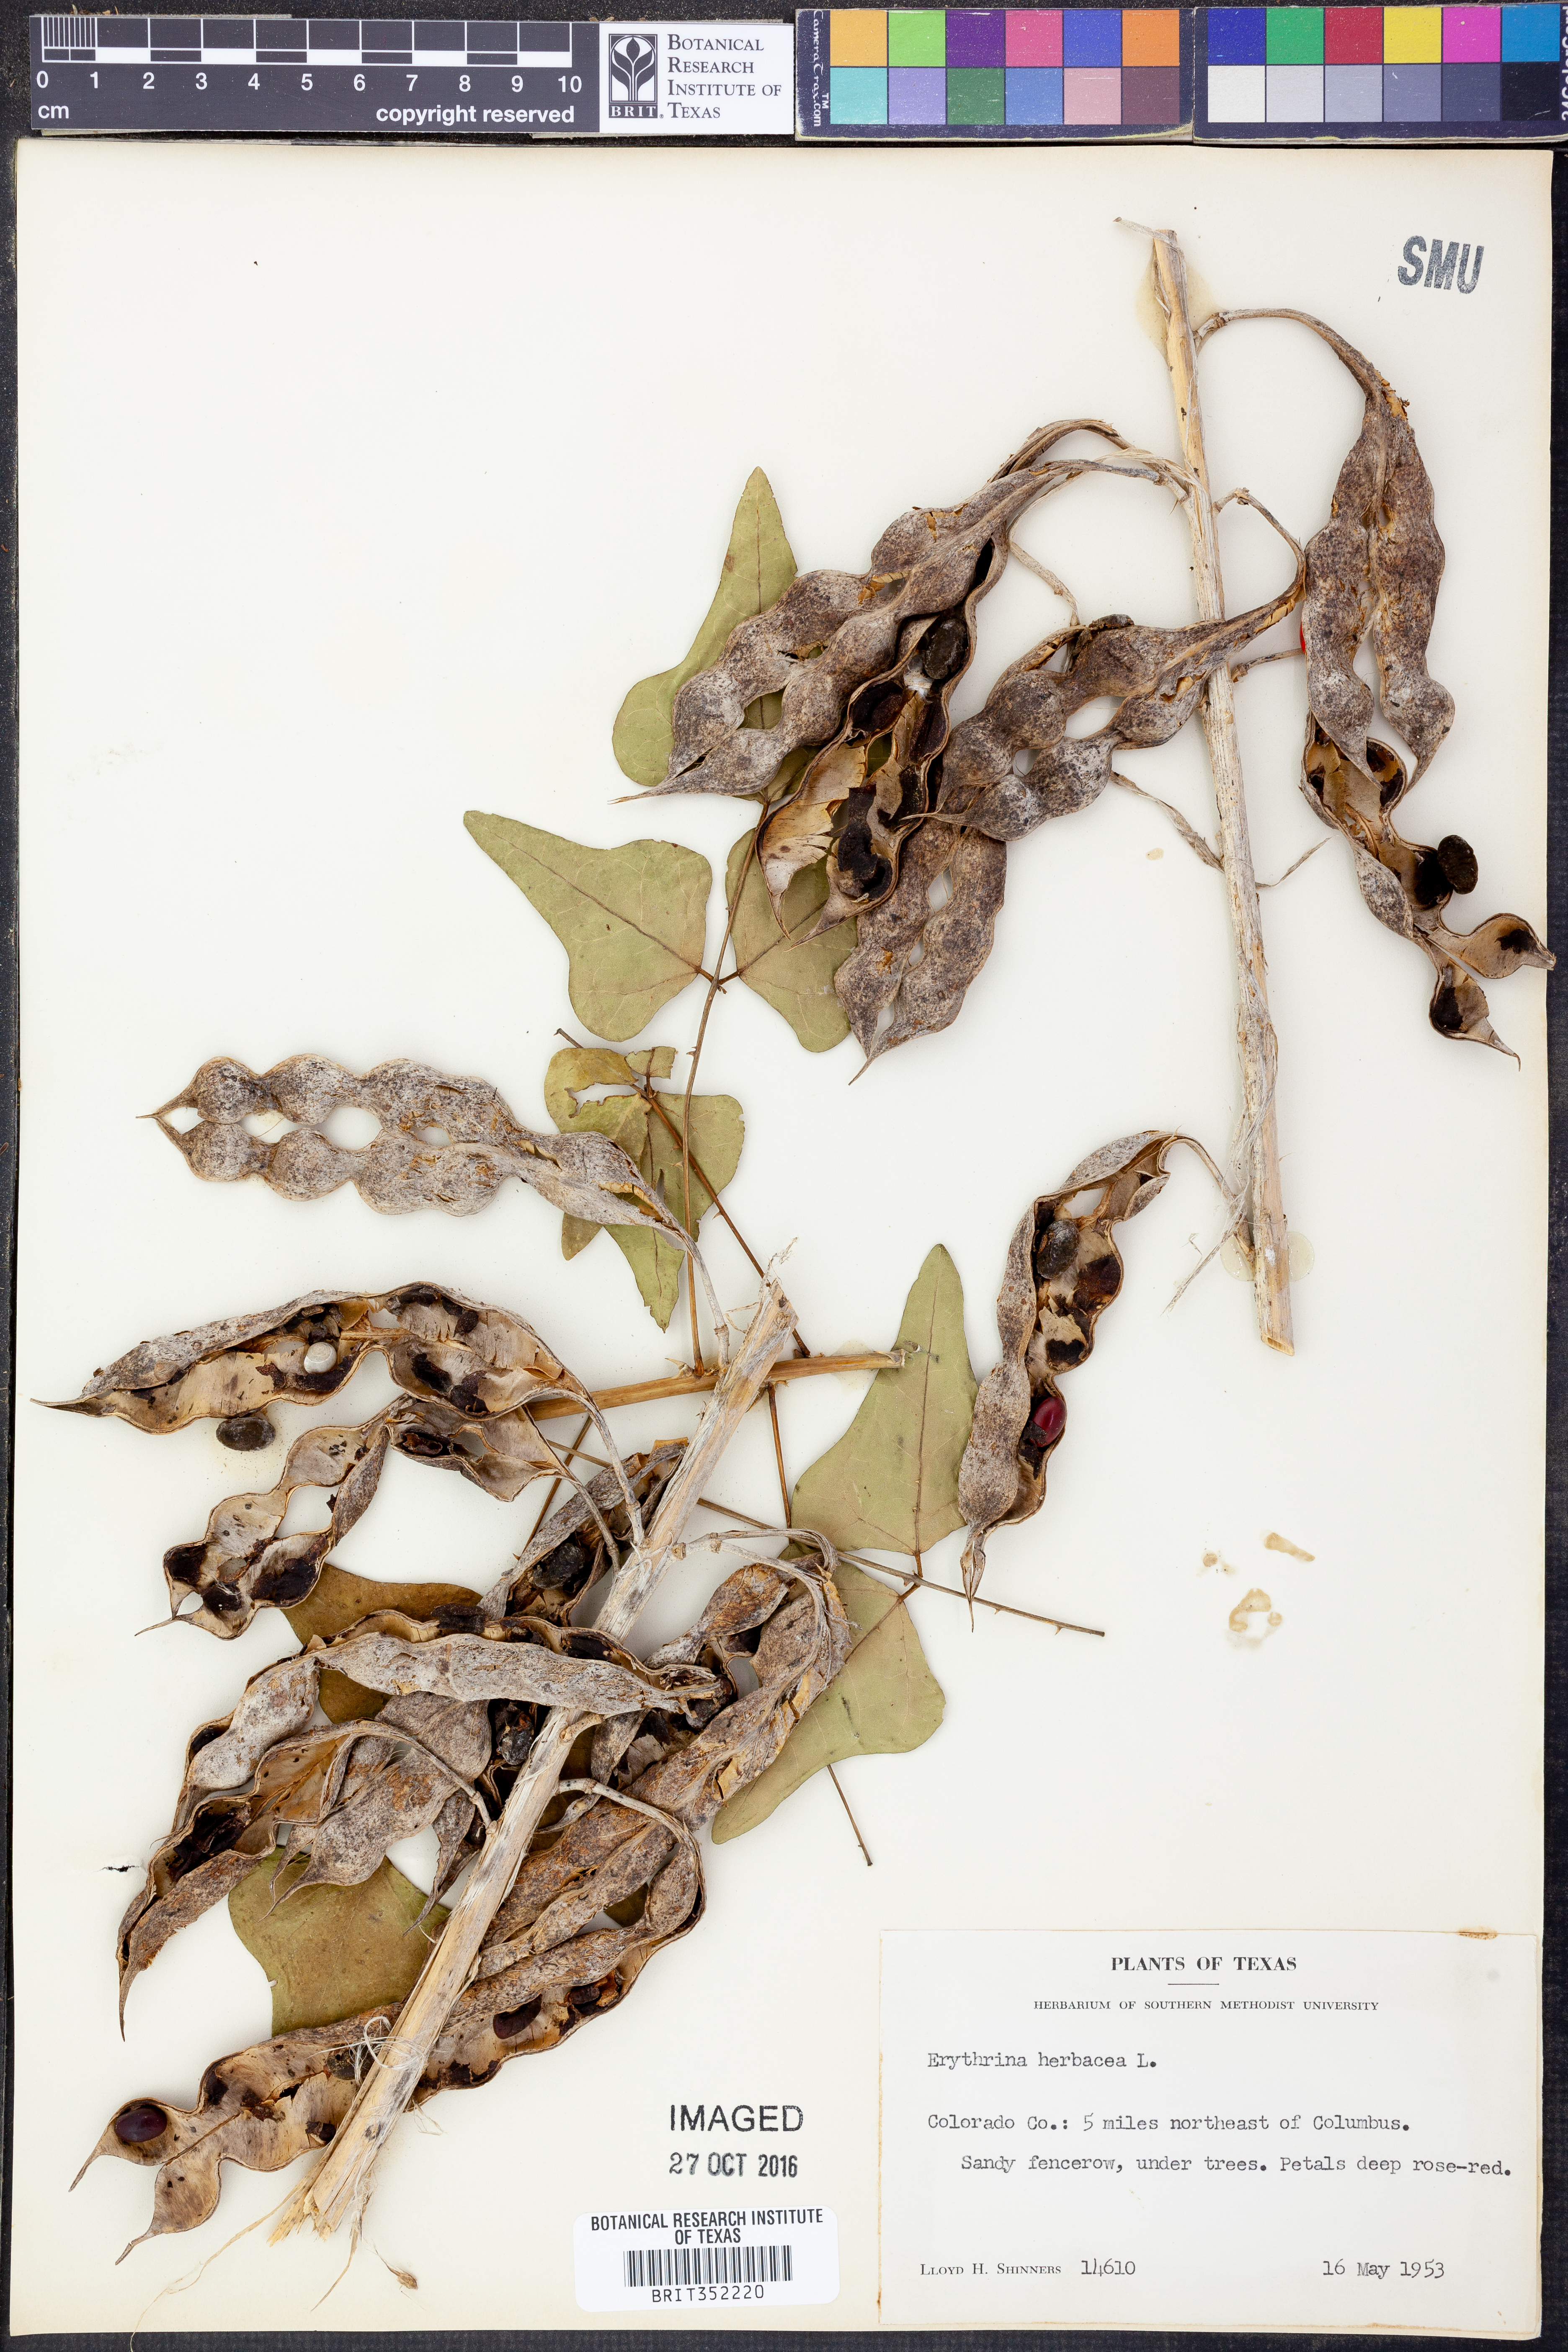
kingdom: Plantae
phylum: Tracheophyta
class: Magnoliopsida
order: Fabales
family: Fabaceae
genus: Erythrina
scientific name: Erythrina herbacea
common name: Coral-bean
